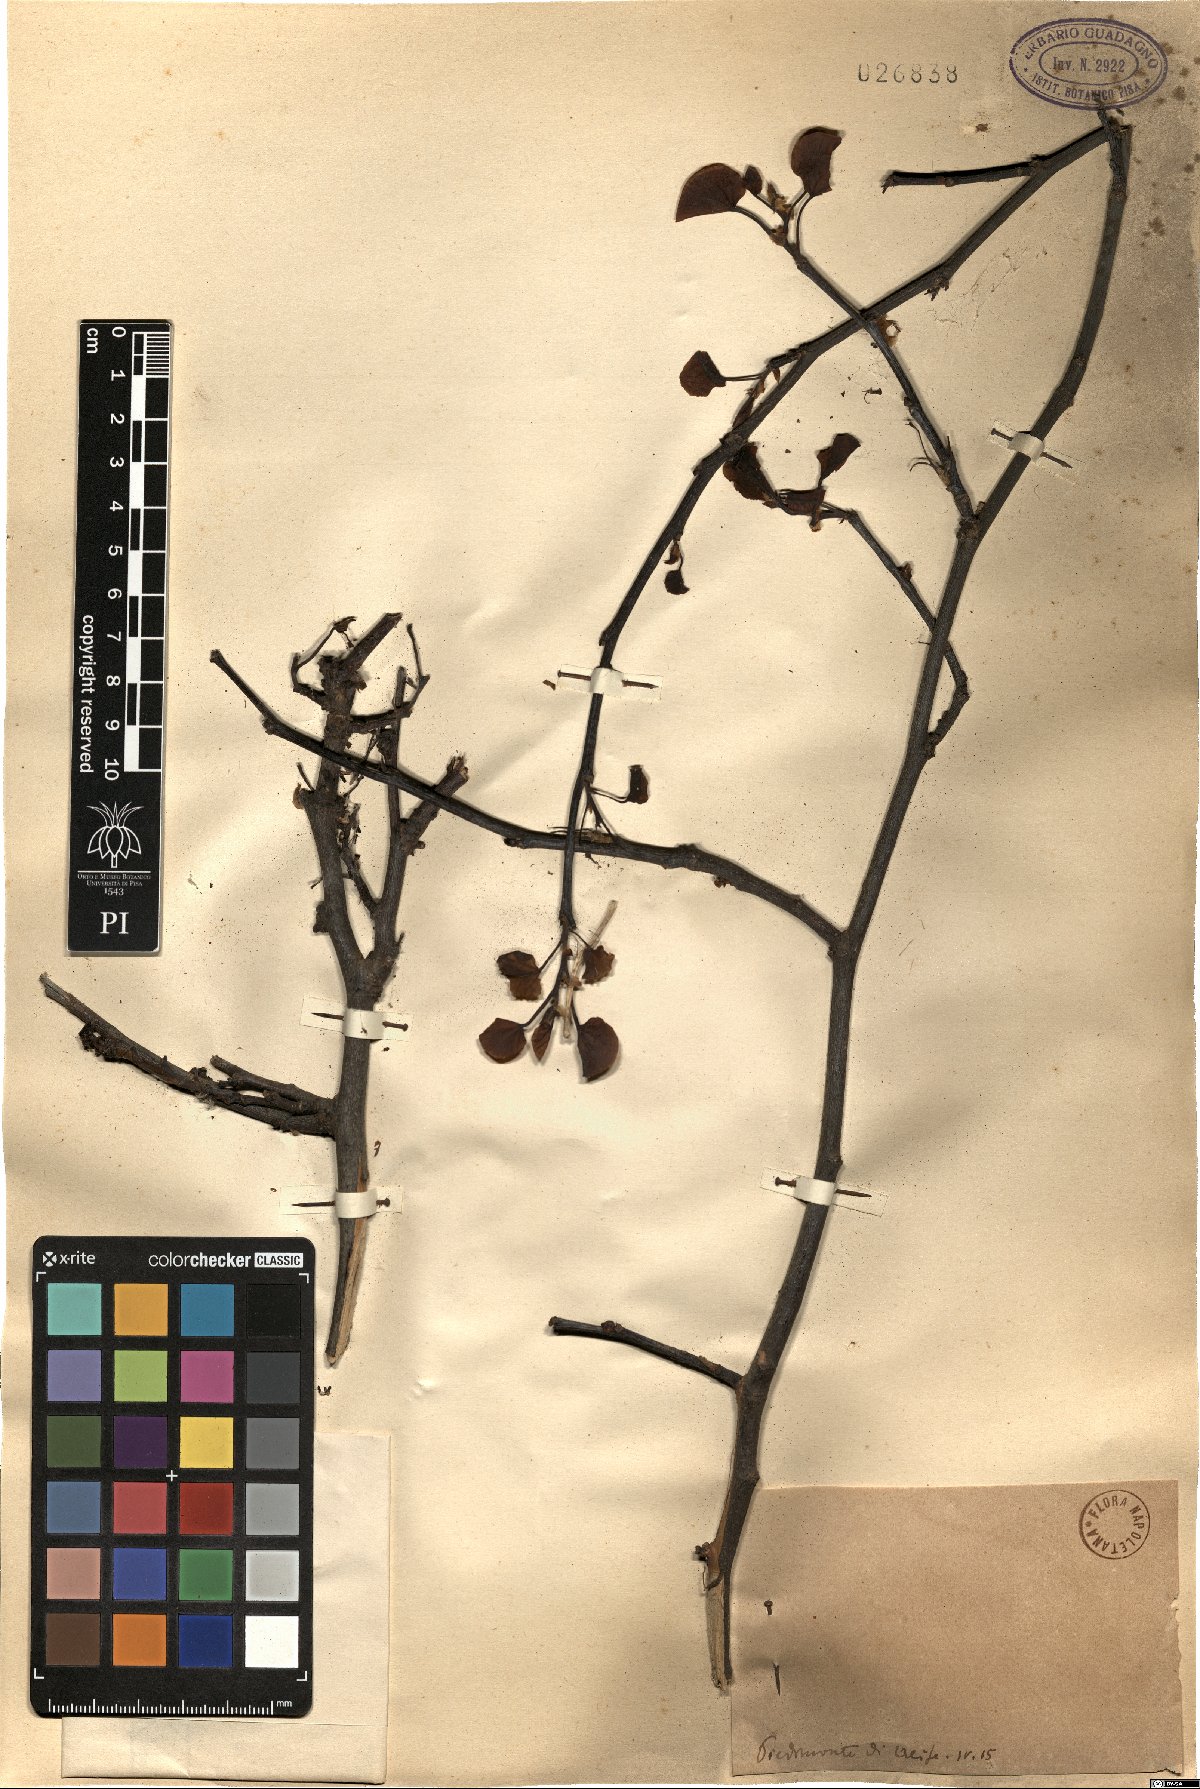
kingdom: Plantae
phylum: Tracheophyta
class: Magnoliopsida
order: Fabales
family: Fabaceae
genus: Cercis
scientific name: Cercis
